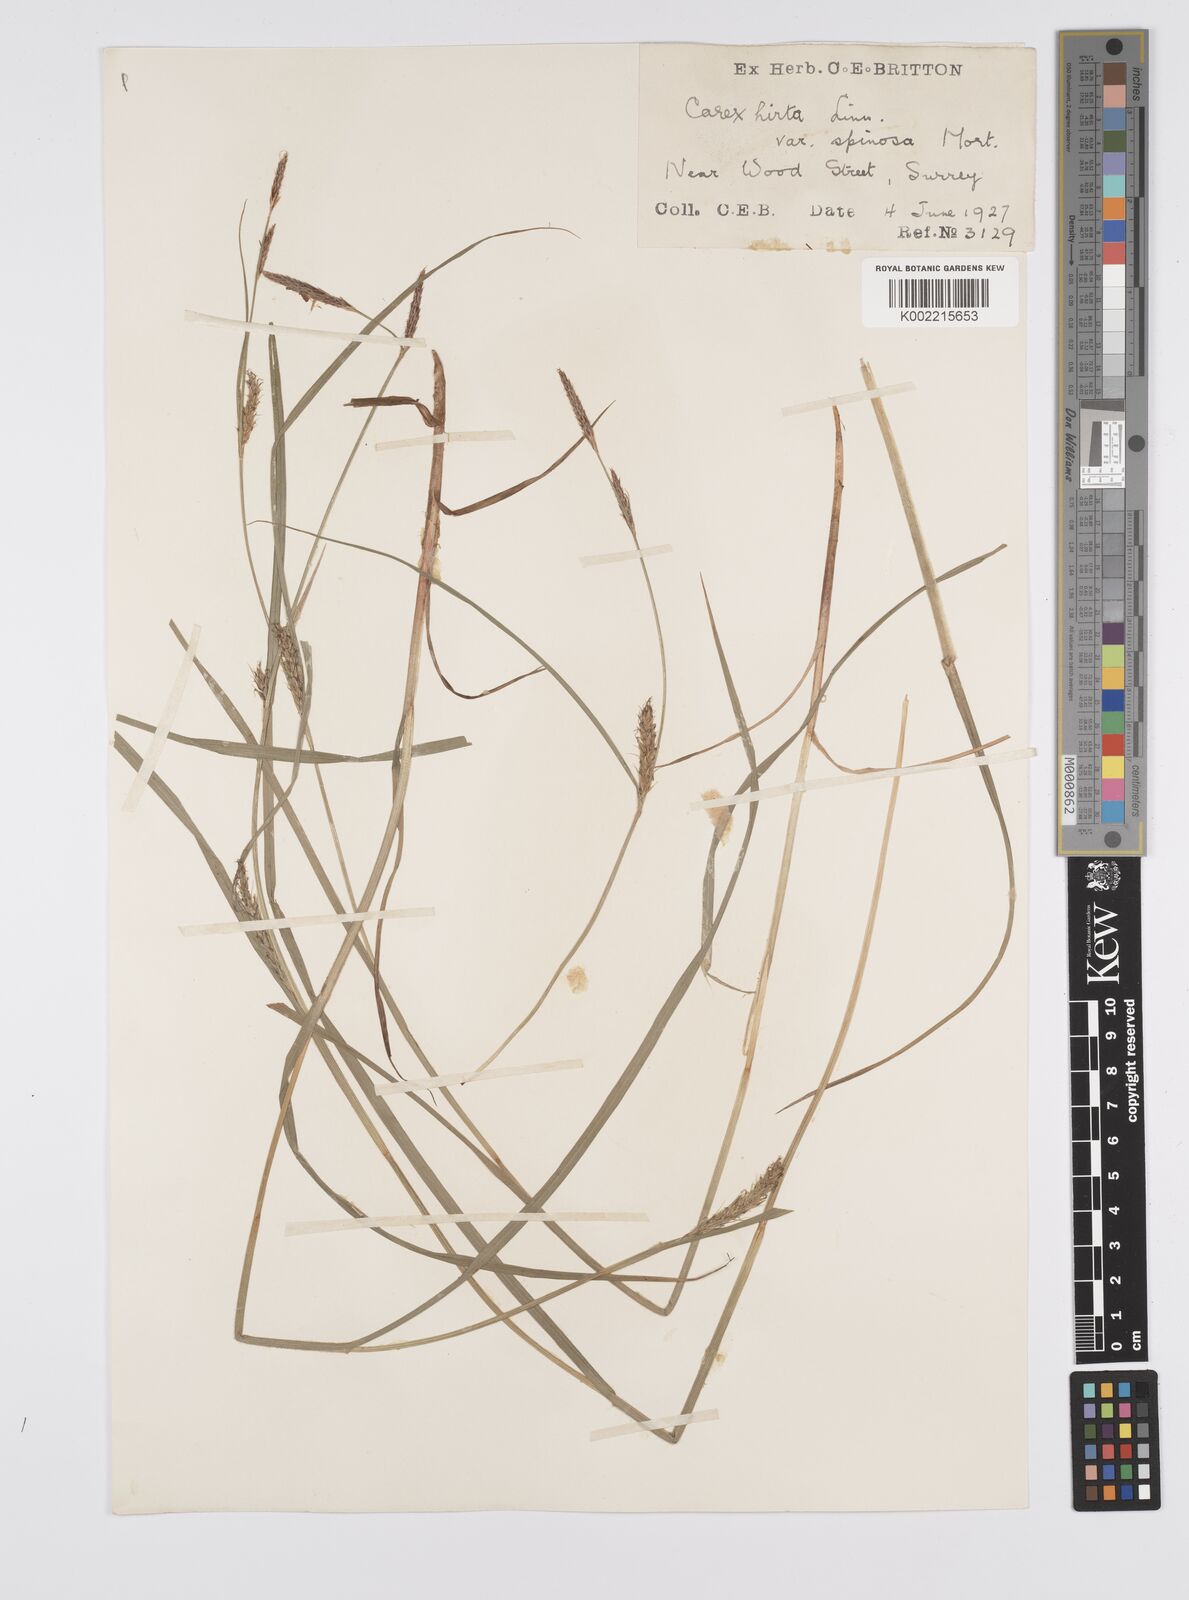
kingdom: Plantae
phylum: Tracheophyta
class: Liliopsida
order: Poales
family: Cyperaceae
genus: Carex
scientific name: Carex hirta
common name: Hairy sedge
